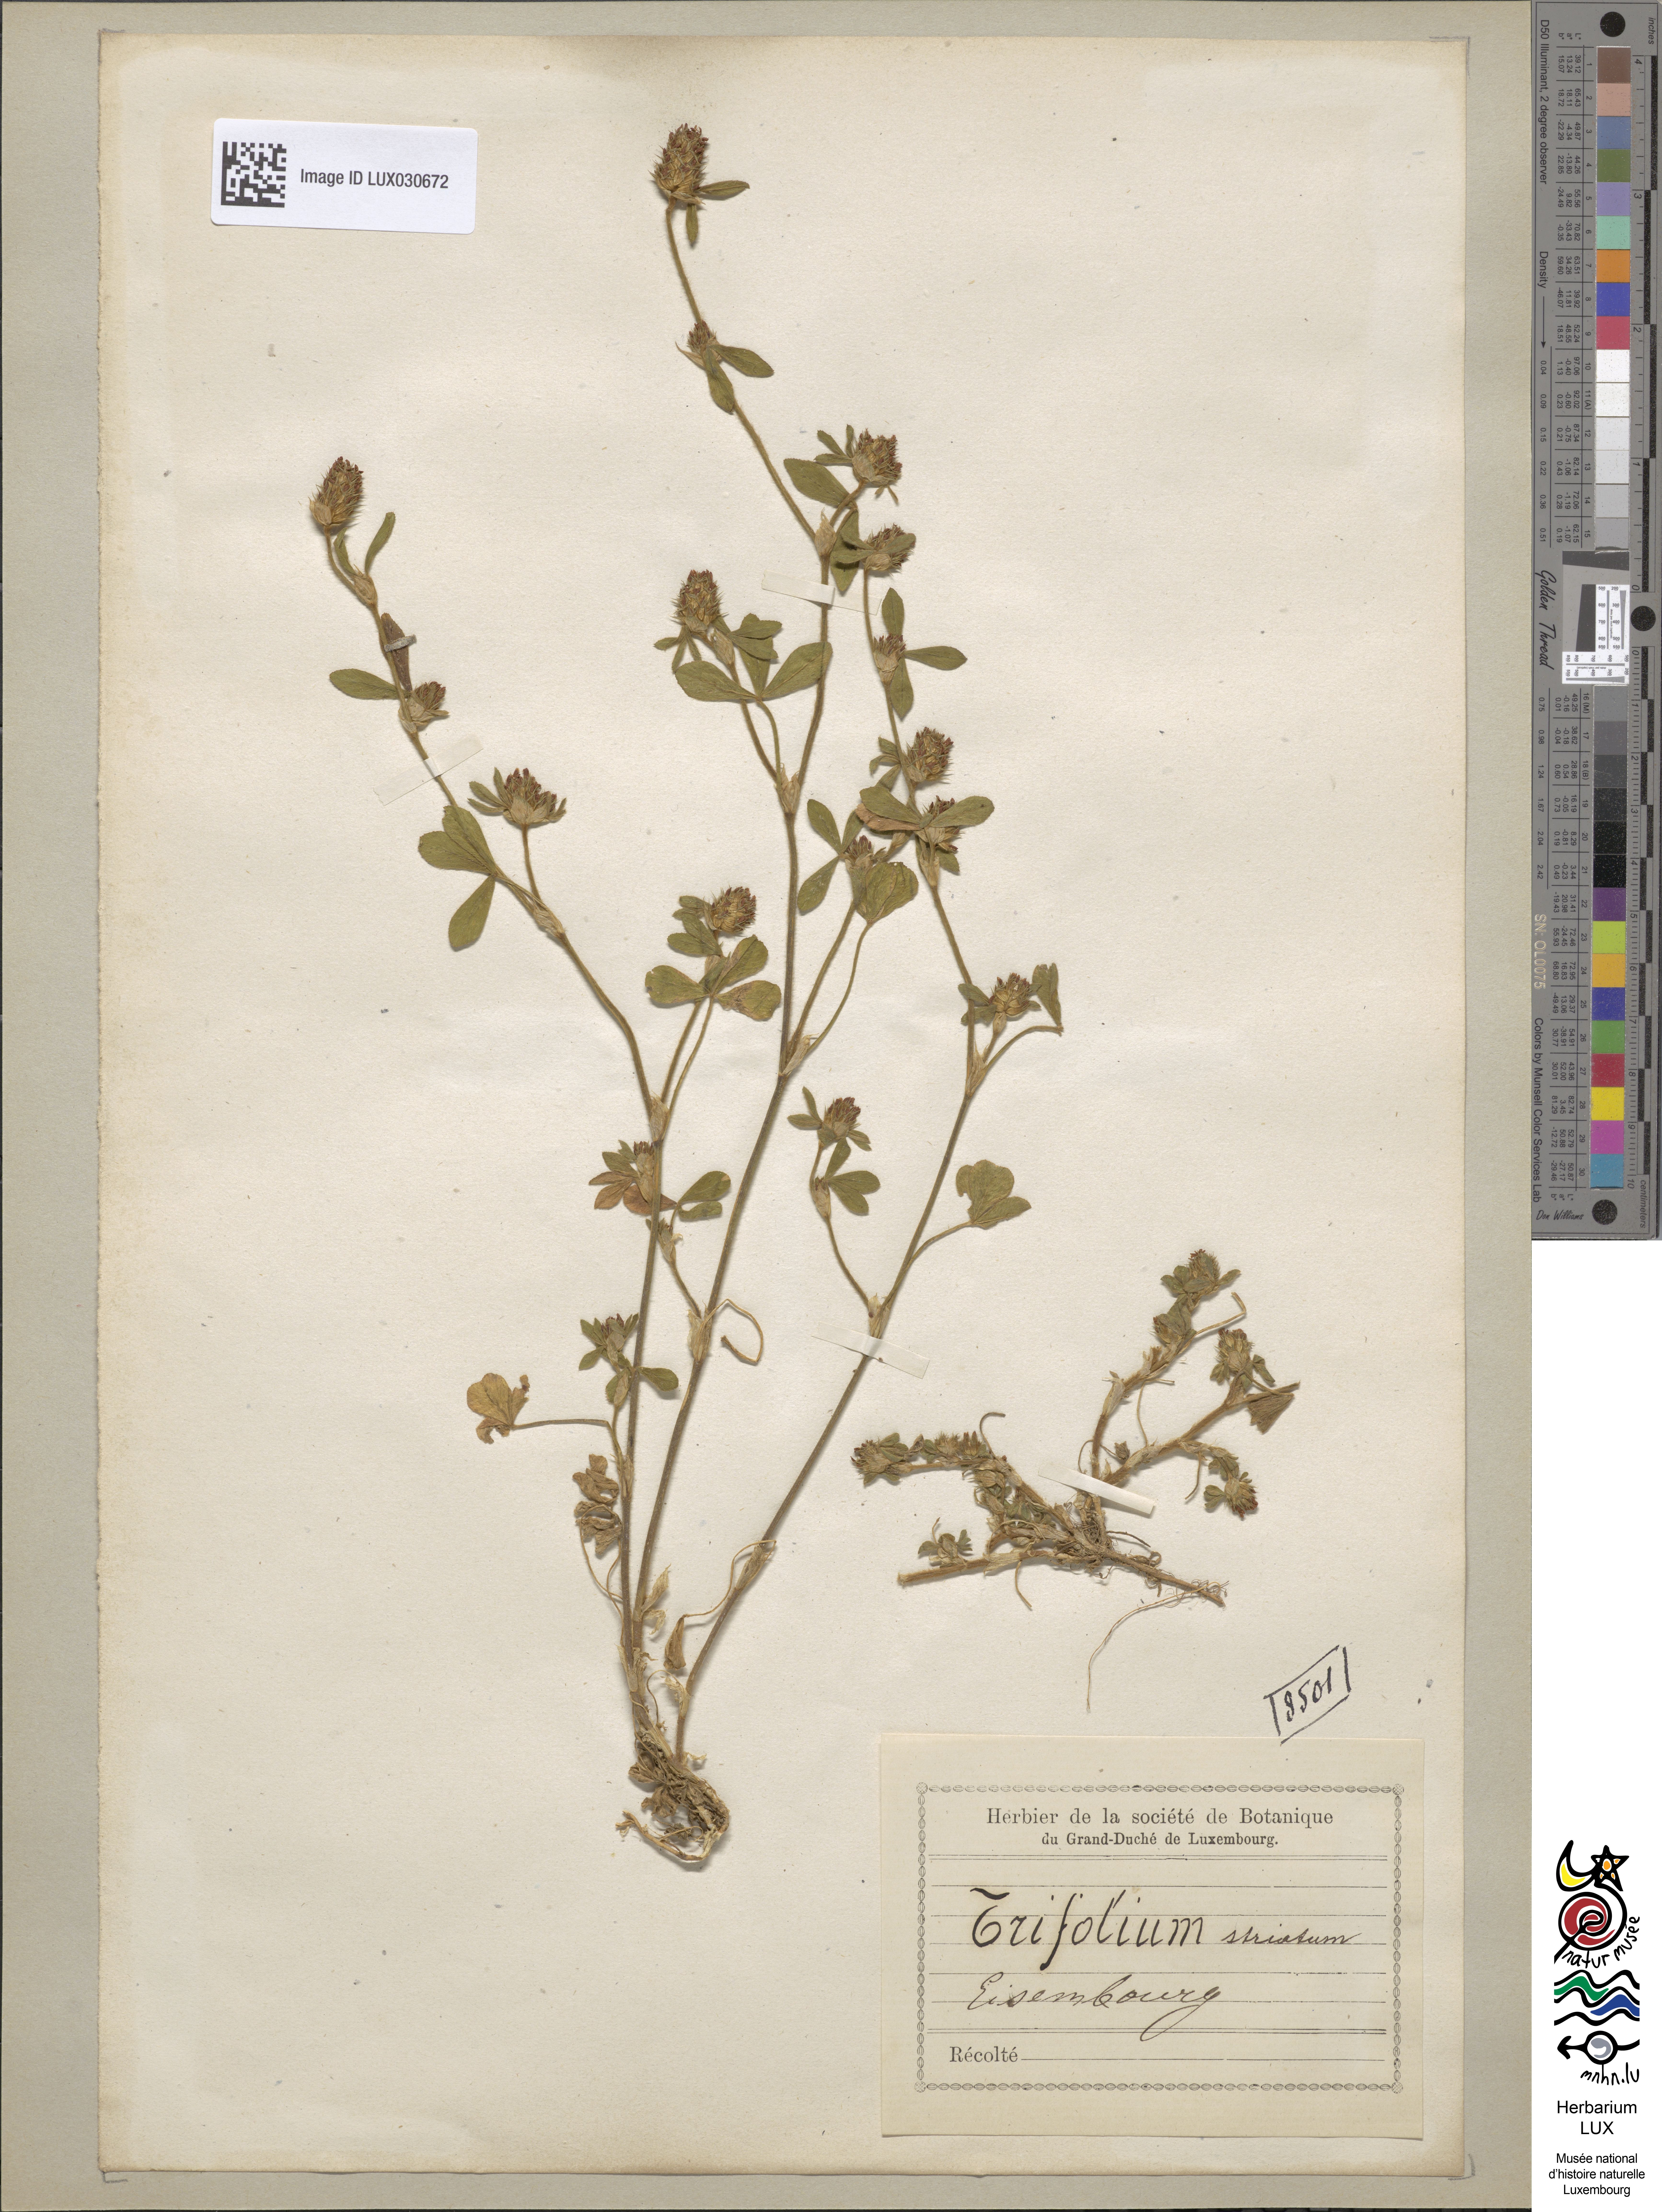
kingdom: Plantae
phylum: Tracheophyta
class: Magnoliopsida
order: Fabales
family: Fabaceae
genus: Trifolium
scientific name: Trifolium striatum
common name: Knotted clover
